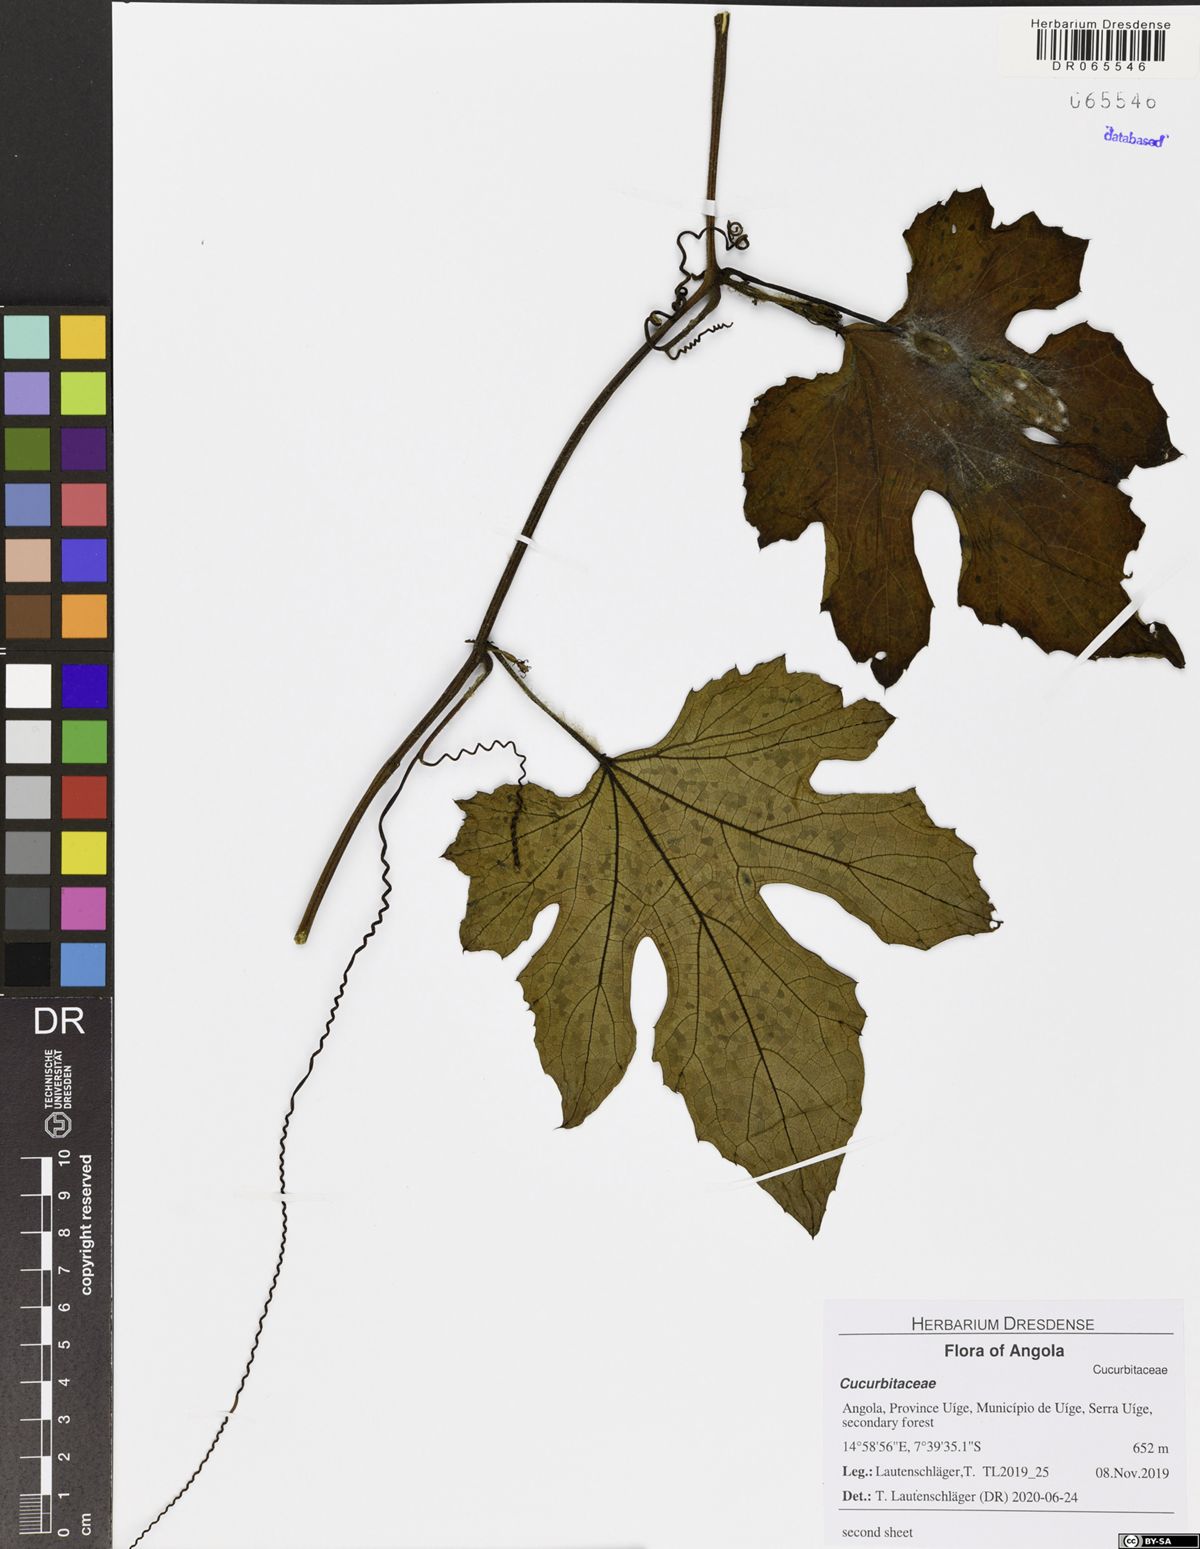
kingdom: Plantae
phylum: Tracheophyta
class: Magnoliopsida
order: Cucurbitales
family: Cucurbitaceae
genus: Lagenaria
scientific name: Lagenaria breviflora
